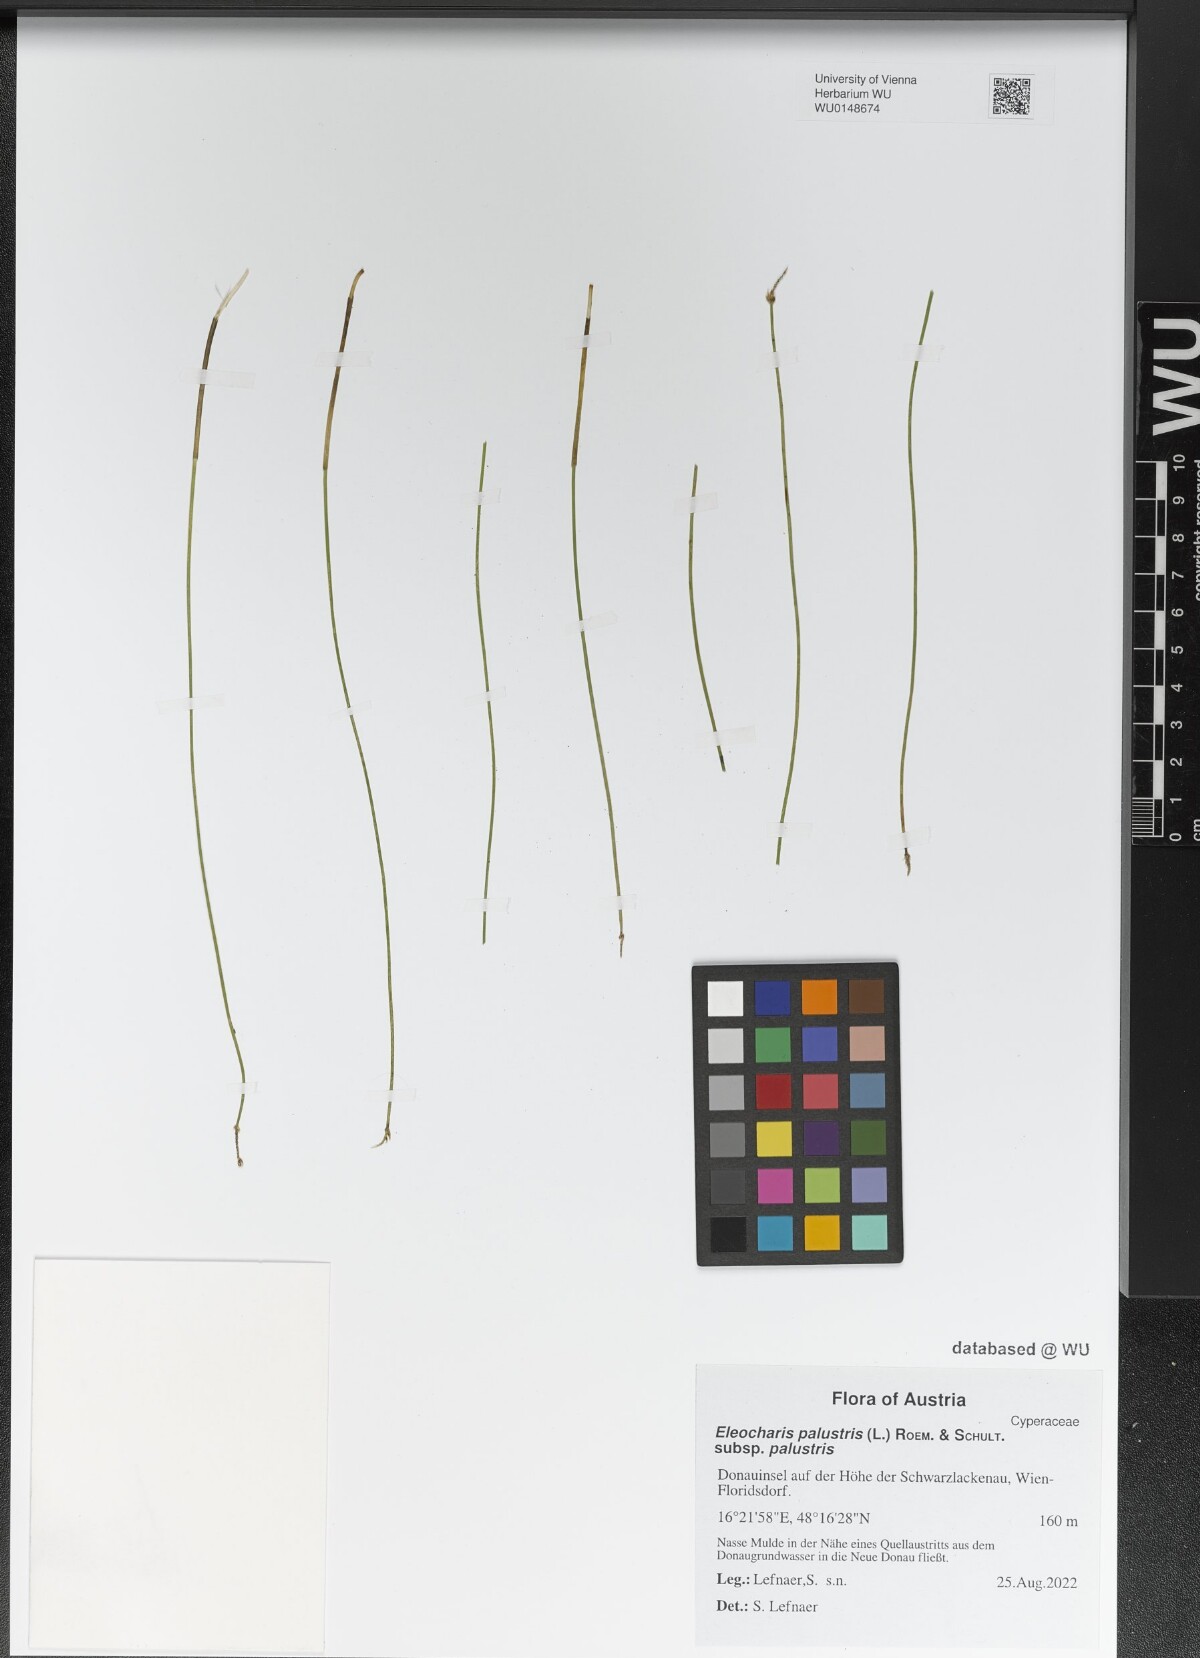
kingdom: Plantae
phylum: Tracheophyta
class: Liliopsida
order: Poales
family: Cyperaceae
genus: Eleocharis
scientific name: Eleocharis palustris
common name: Common spike-rush
